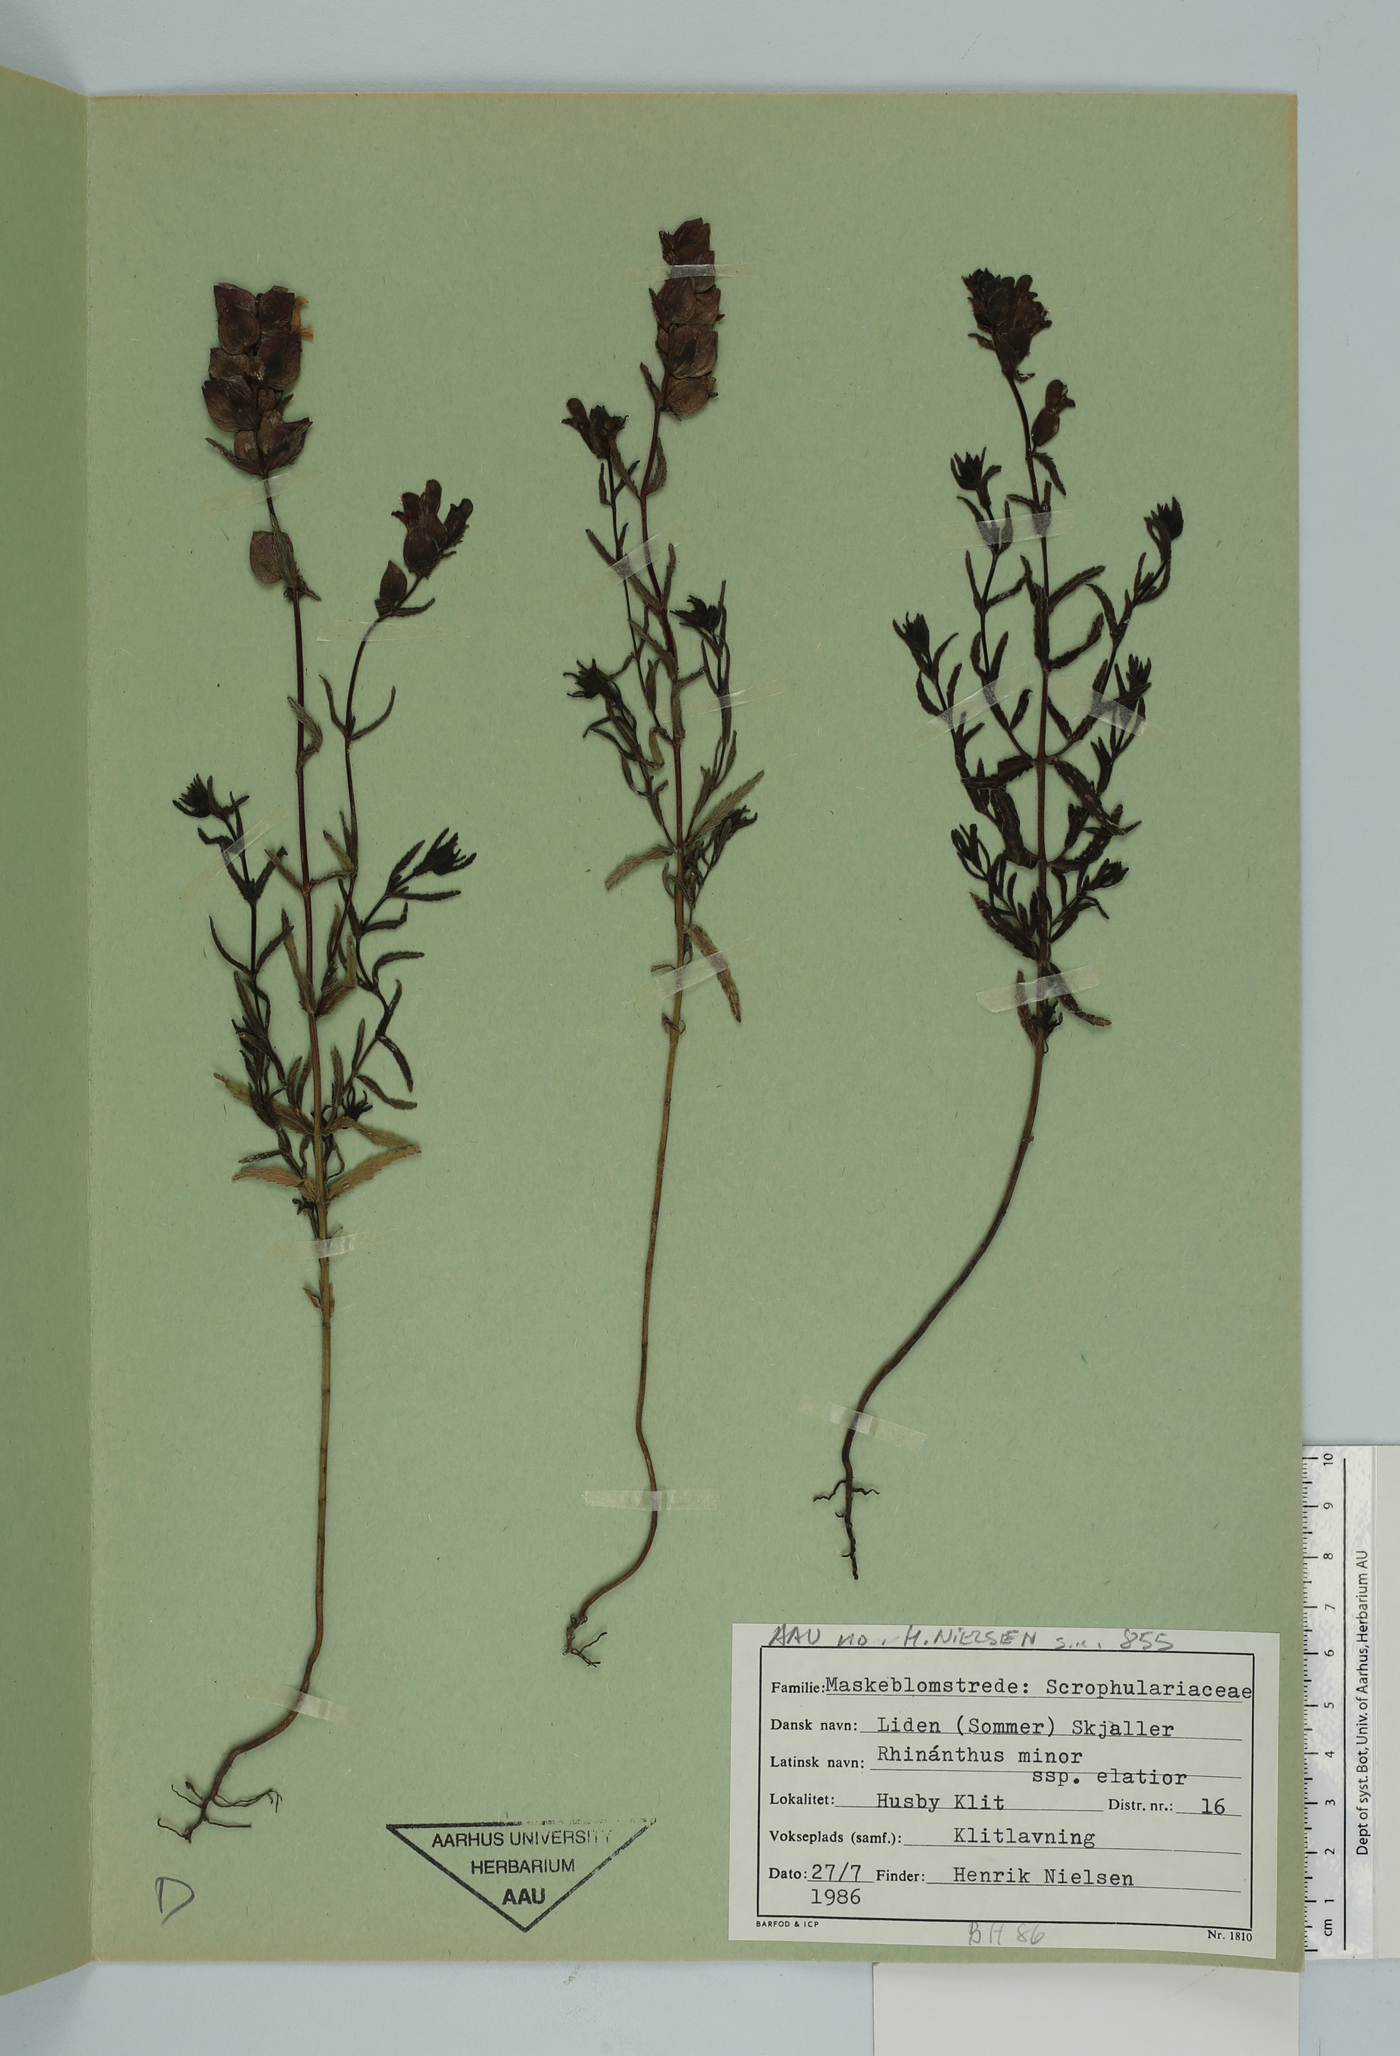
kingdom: Plantae
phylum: Tracheophyta
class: Magnoliopsida
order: Lamiales
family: Orobanchaceae
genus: Rhinanthus
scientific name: Rhinanthus minor
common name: Yellow-rattle
